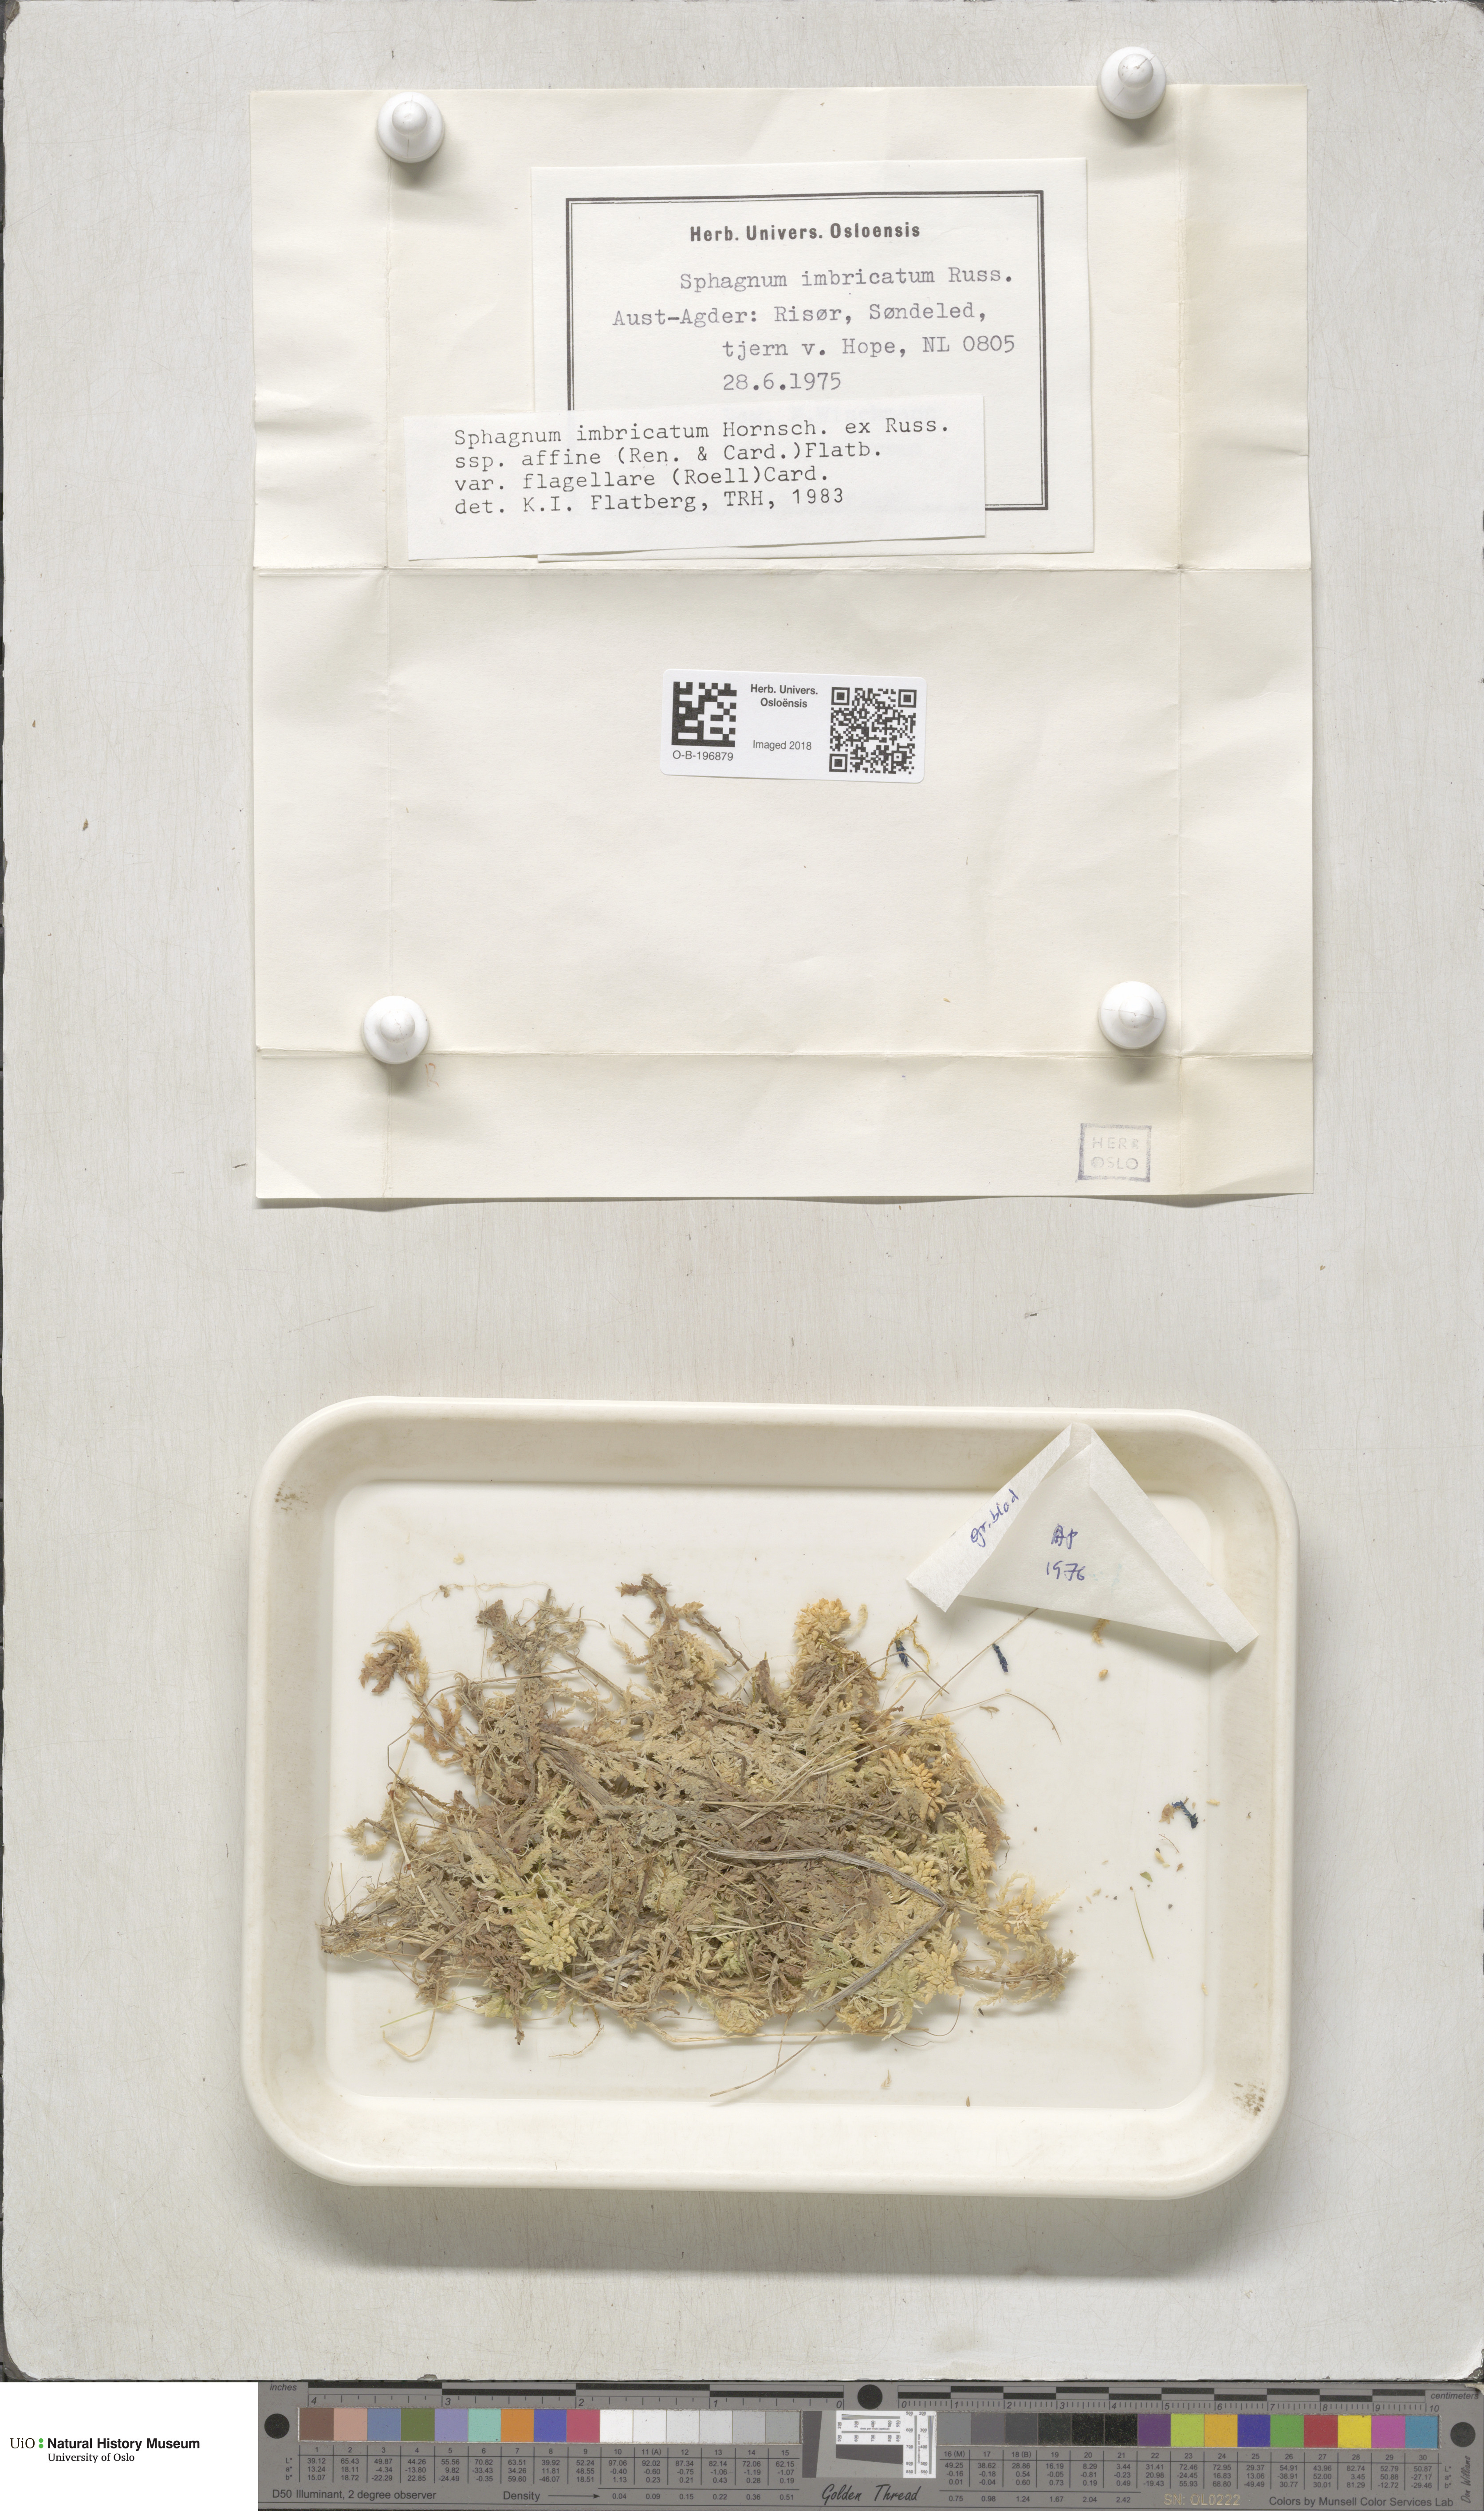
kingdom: Plantae
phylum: Bryophyta
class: Sphagnopsida
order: Sphagnales
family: Sphagnaceae
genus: Sphagnum
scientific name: Sphagnum affine
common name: Imbricate peat moss
